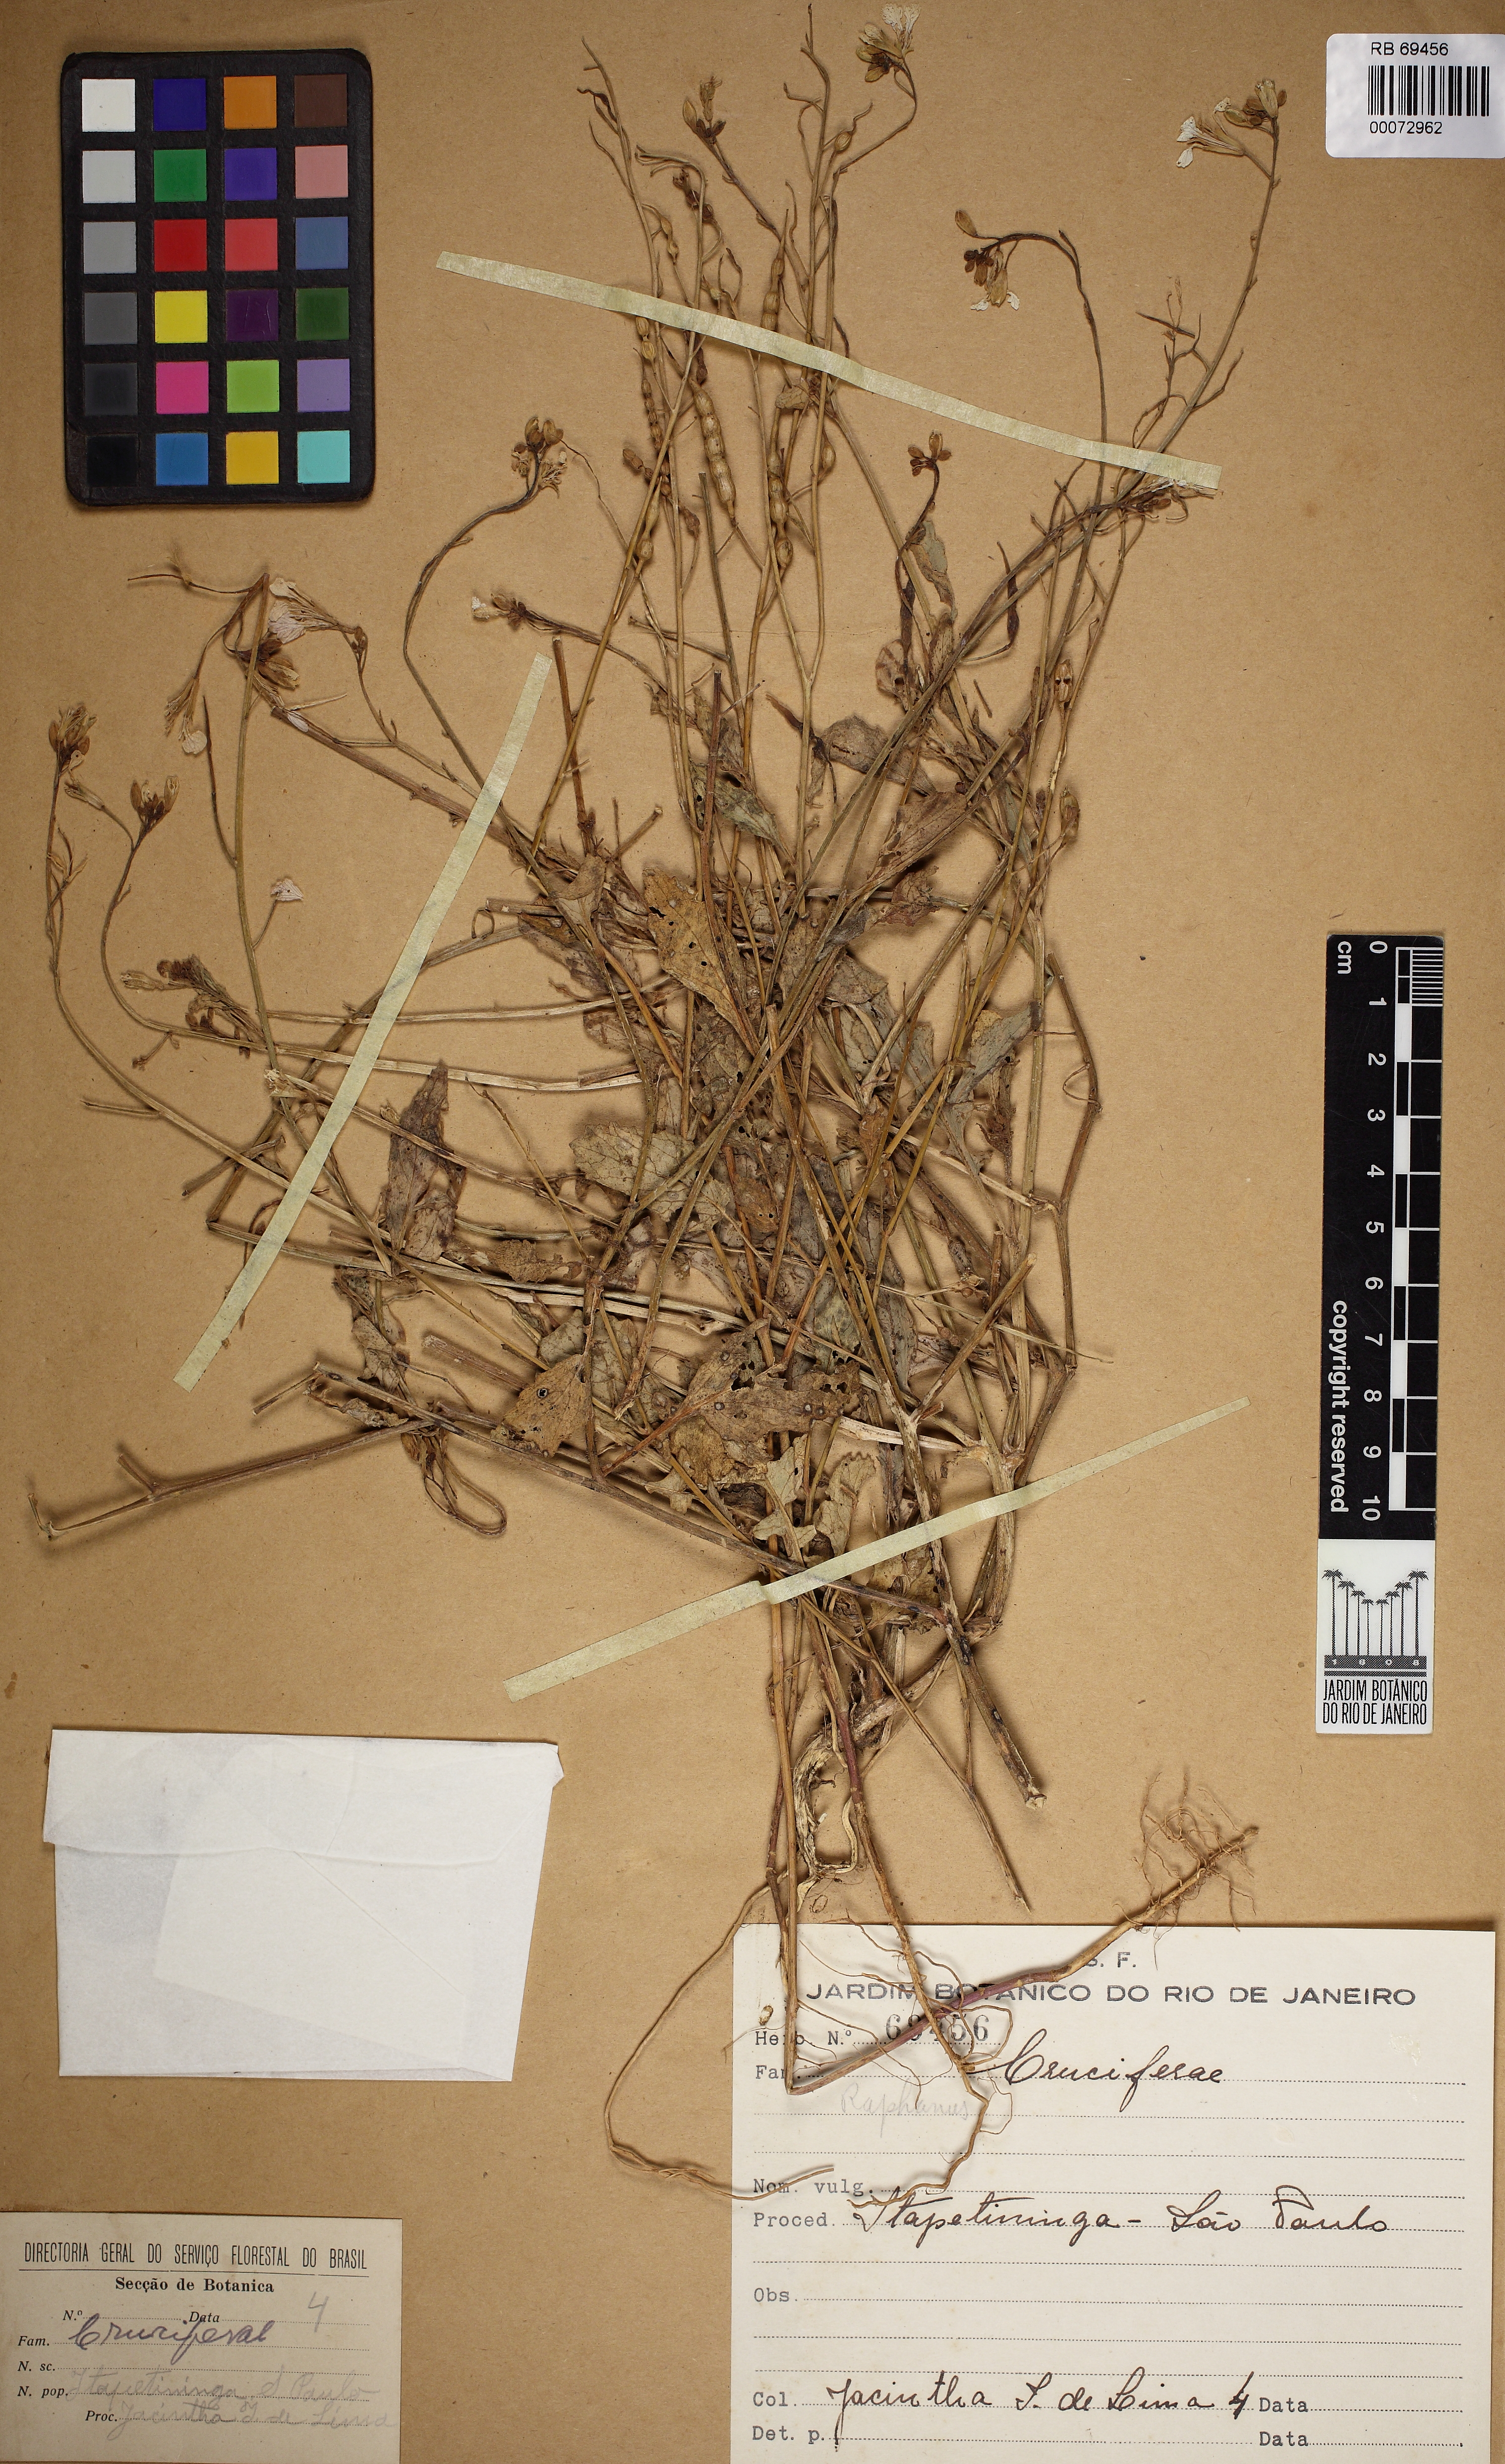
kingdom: Plantae
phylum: Tracheophyta
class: Magnoliopsida
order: Brassicales
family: Brassicaceae
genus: Raphanus
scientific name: Raphanus
